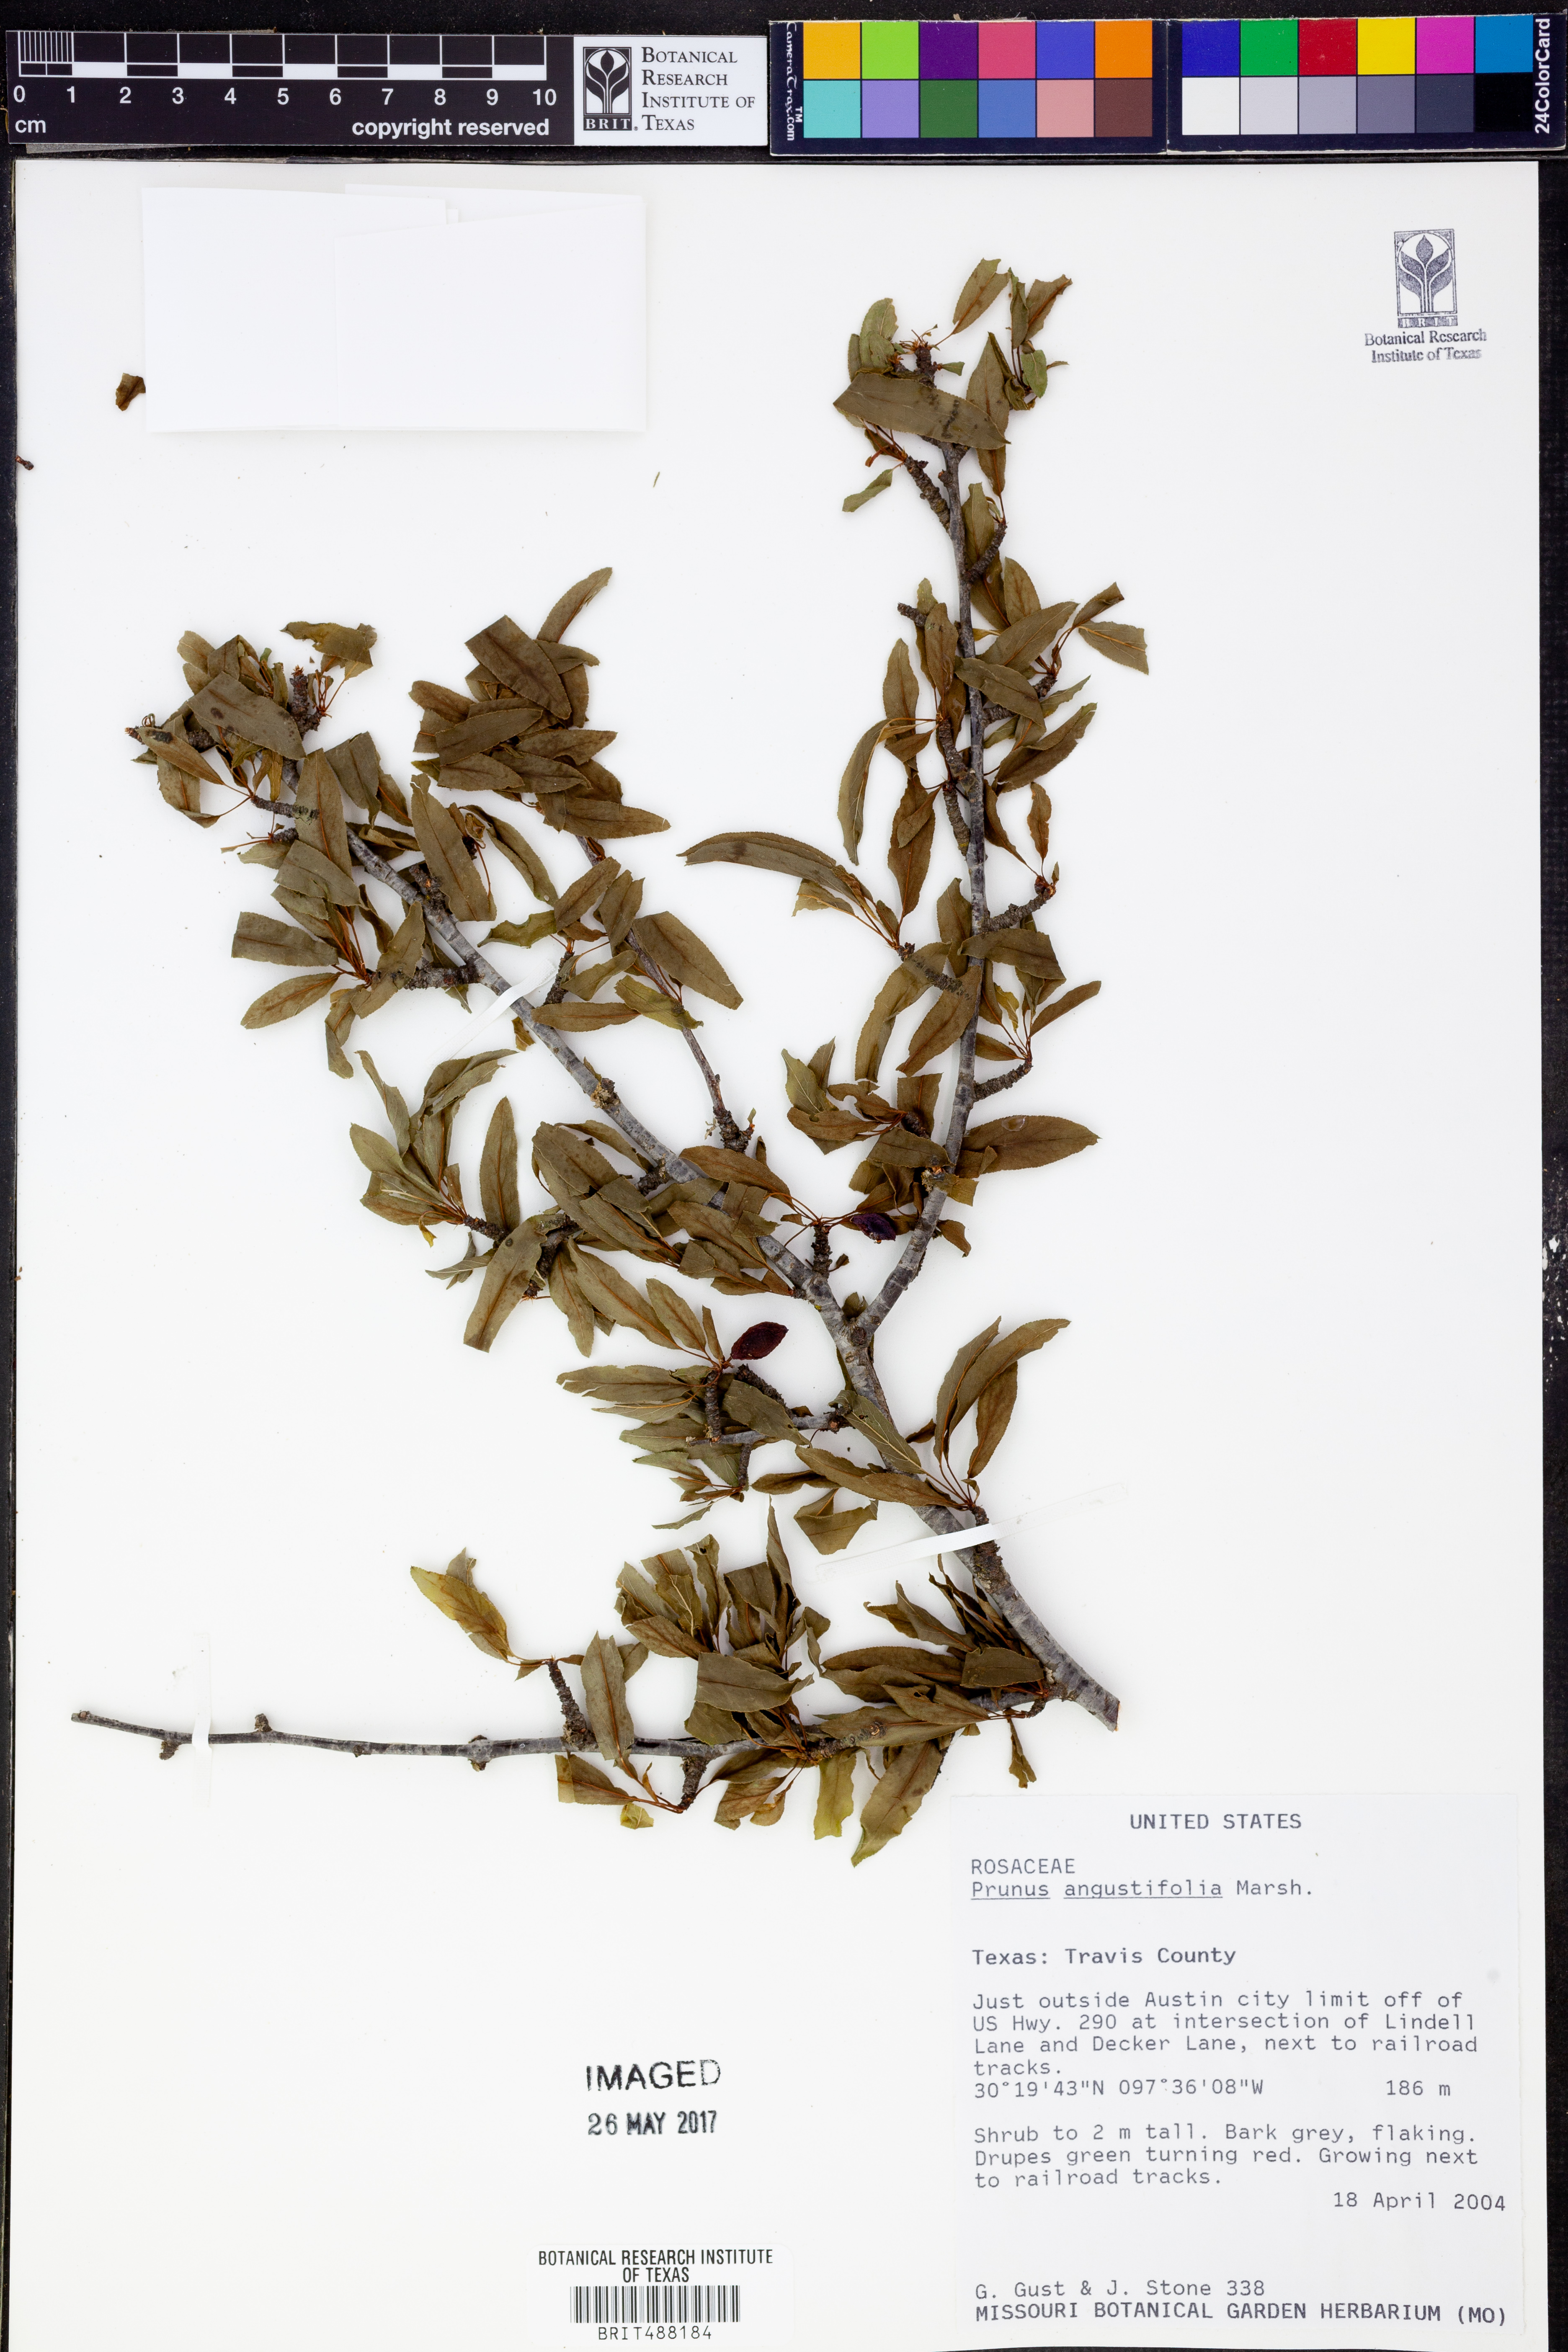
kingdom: Plantae
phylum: Tracheophyta
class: Magnoliopsida
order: Rosales
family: Rosaceae
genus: Prunus
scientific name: Prunus angustifolia
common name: Cherokee plum
